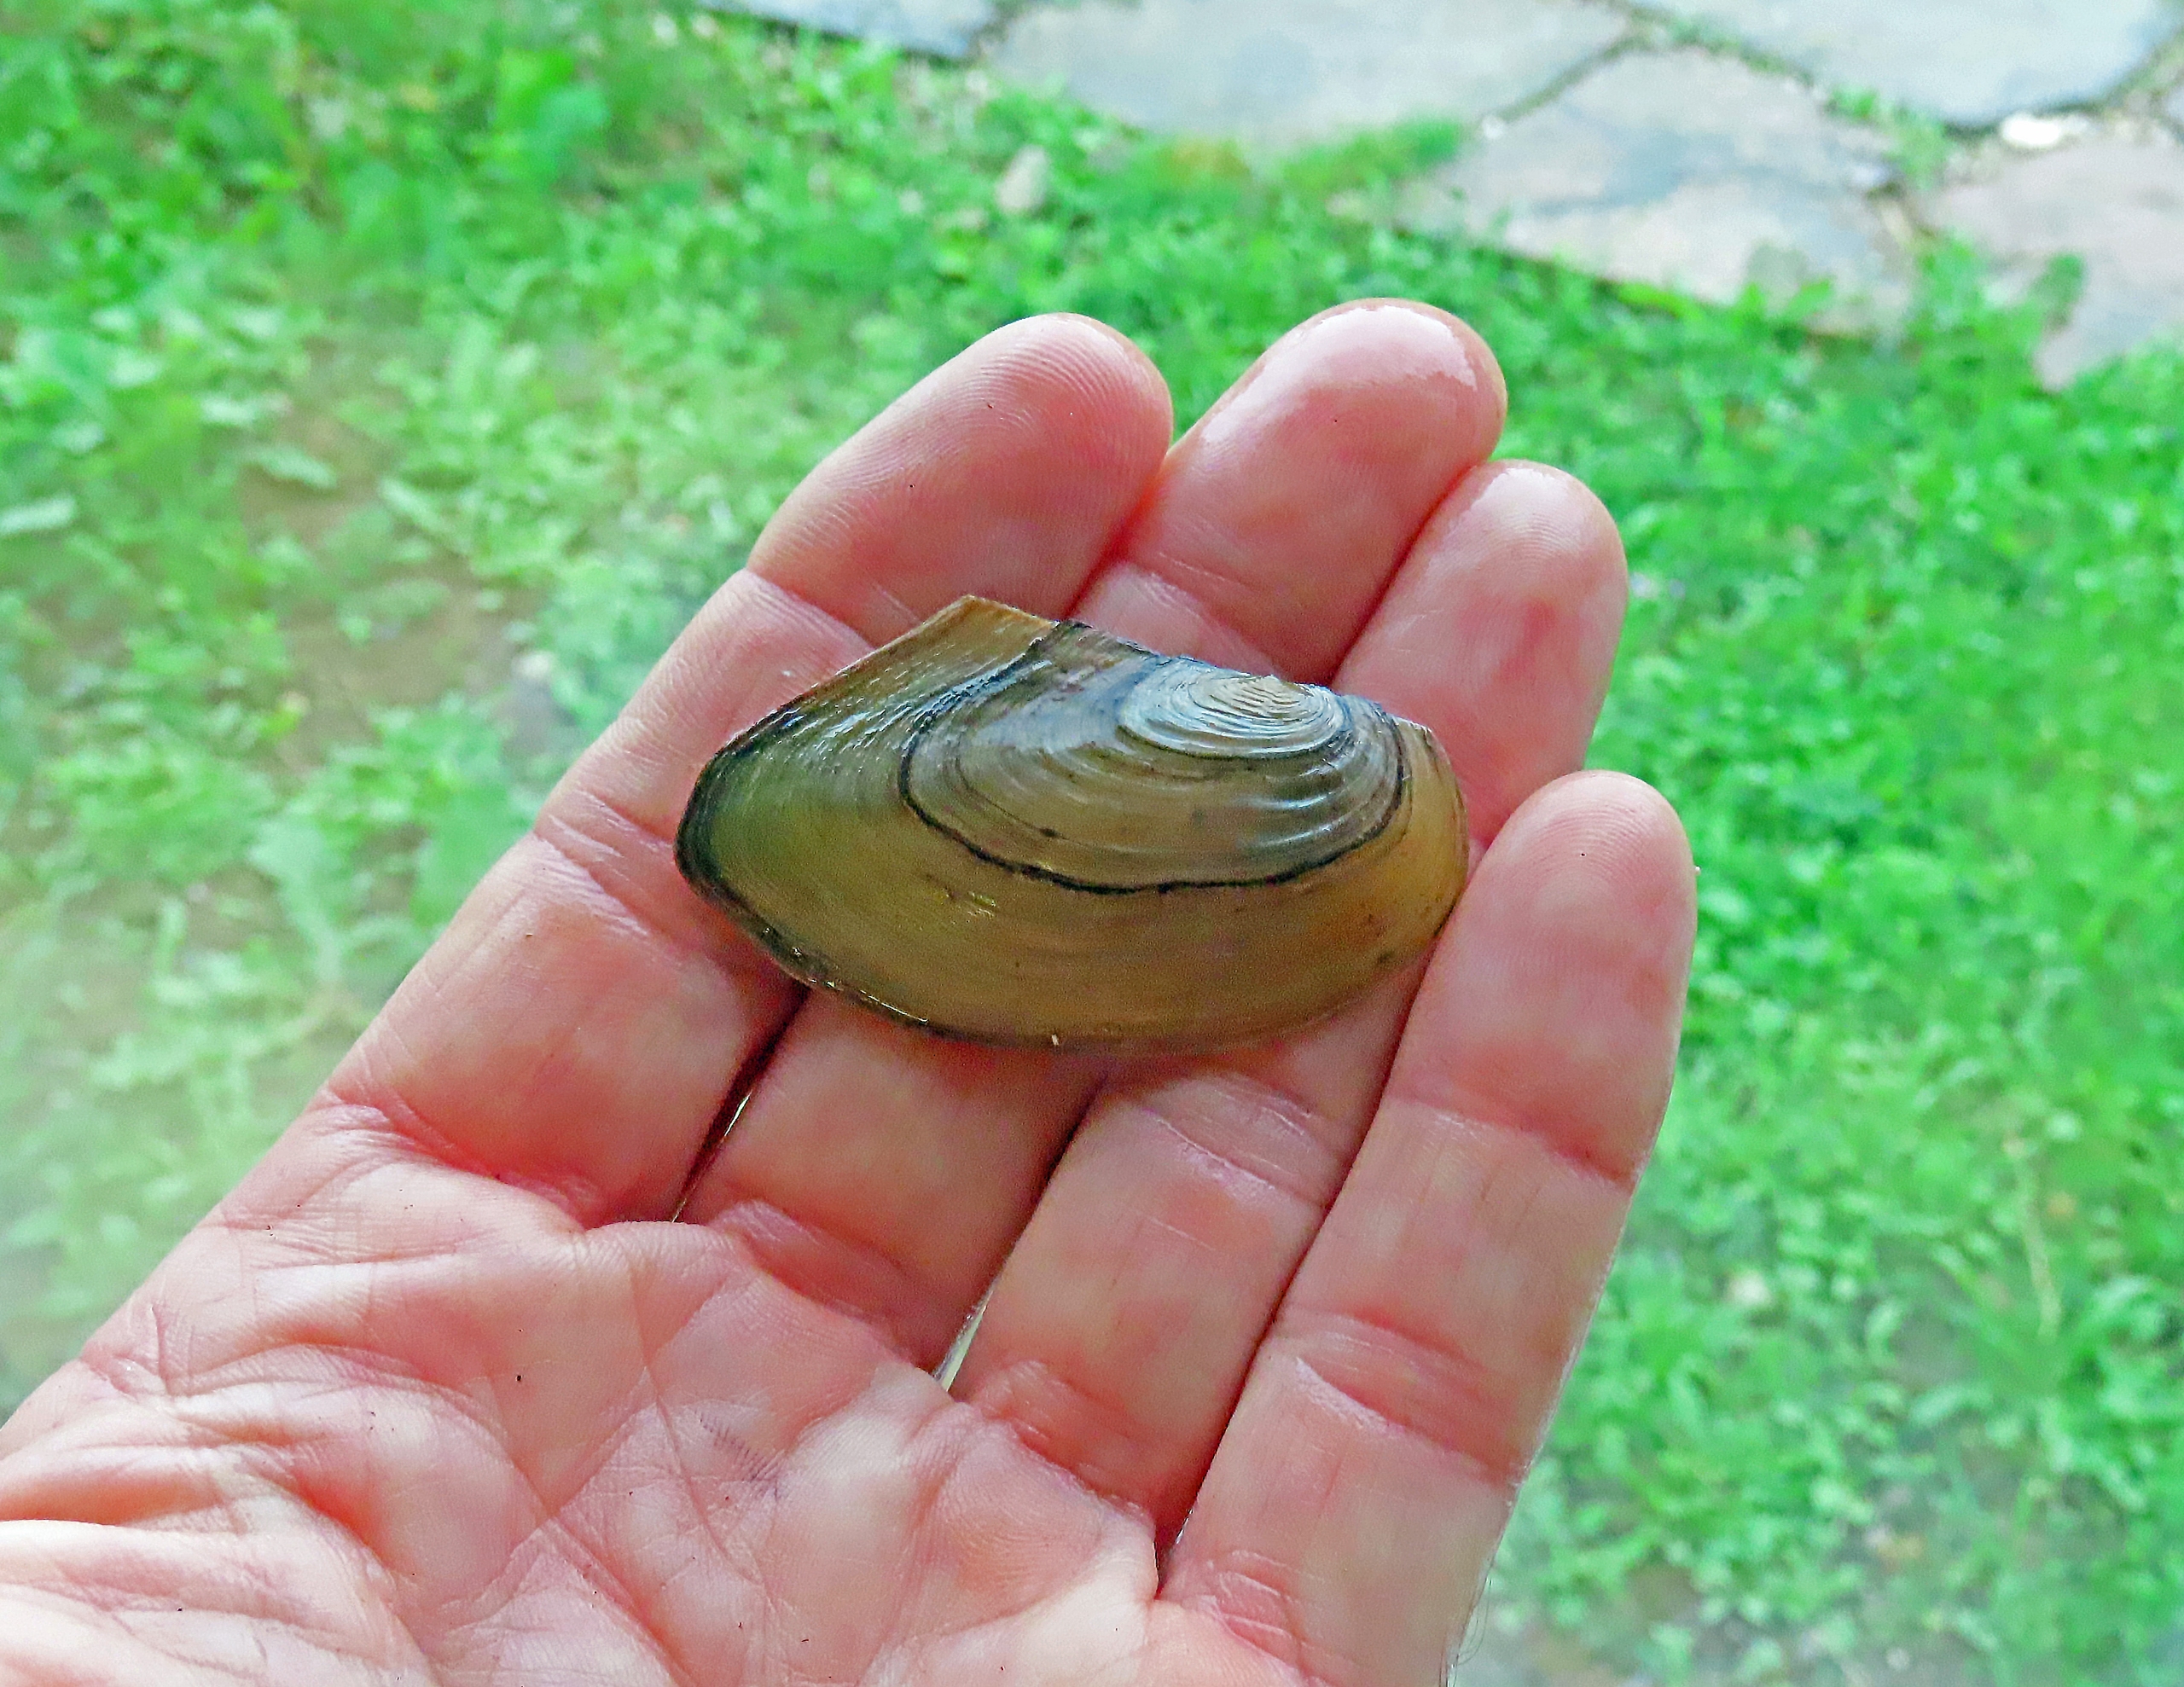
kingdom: Animalia
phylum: Mollusca
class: Bivalvia
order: Unionida
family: Unionidae
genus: Anodonta
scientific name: Anodonta cygnea
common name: Stor dammusling
